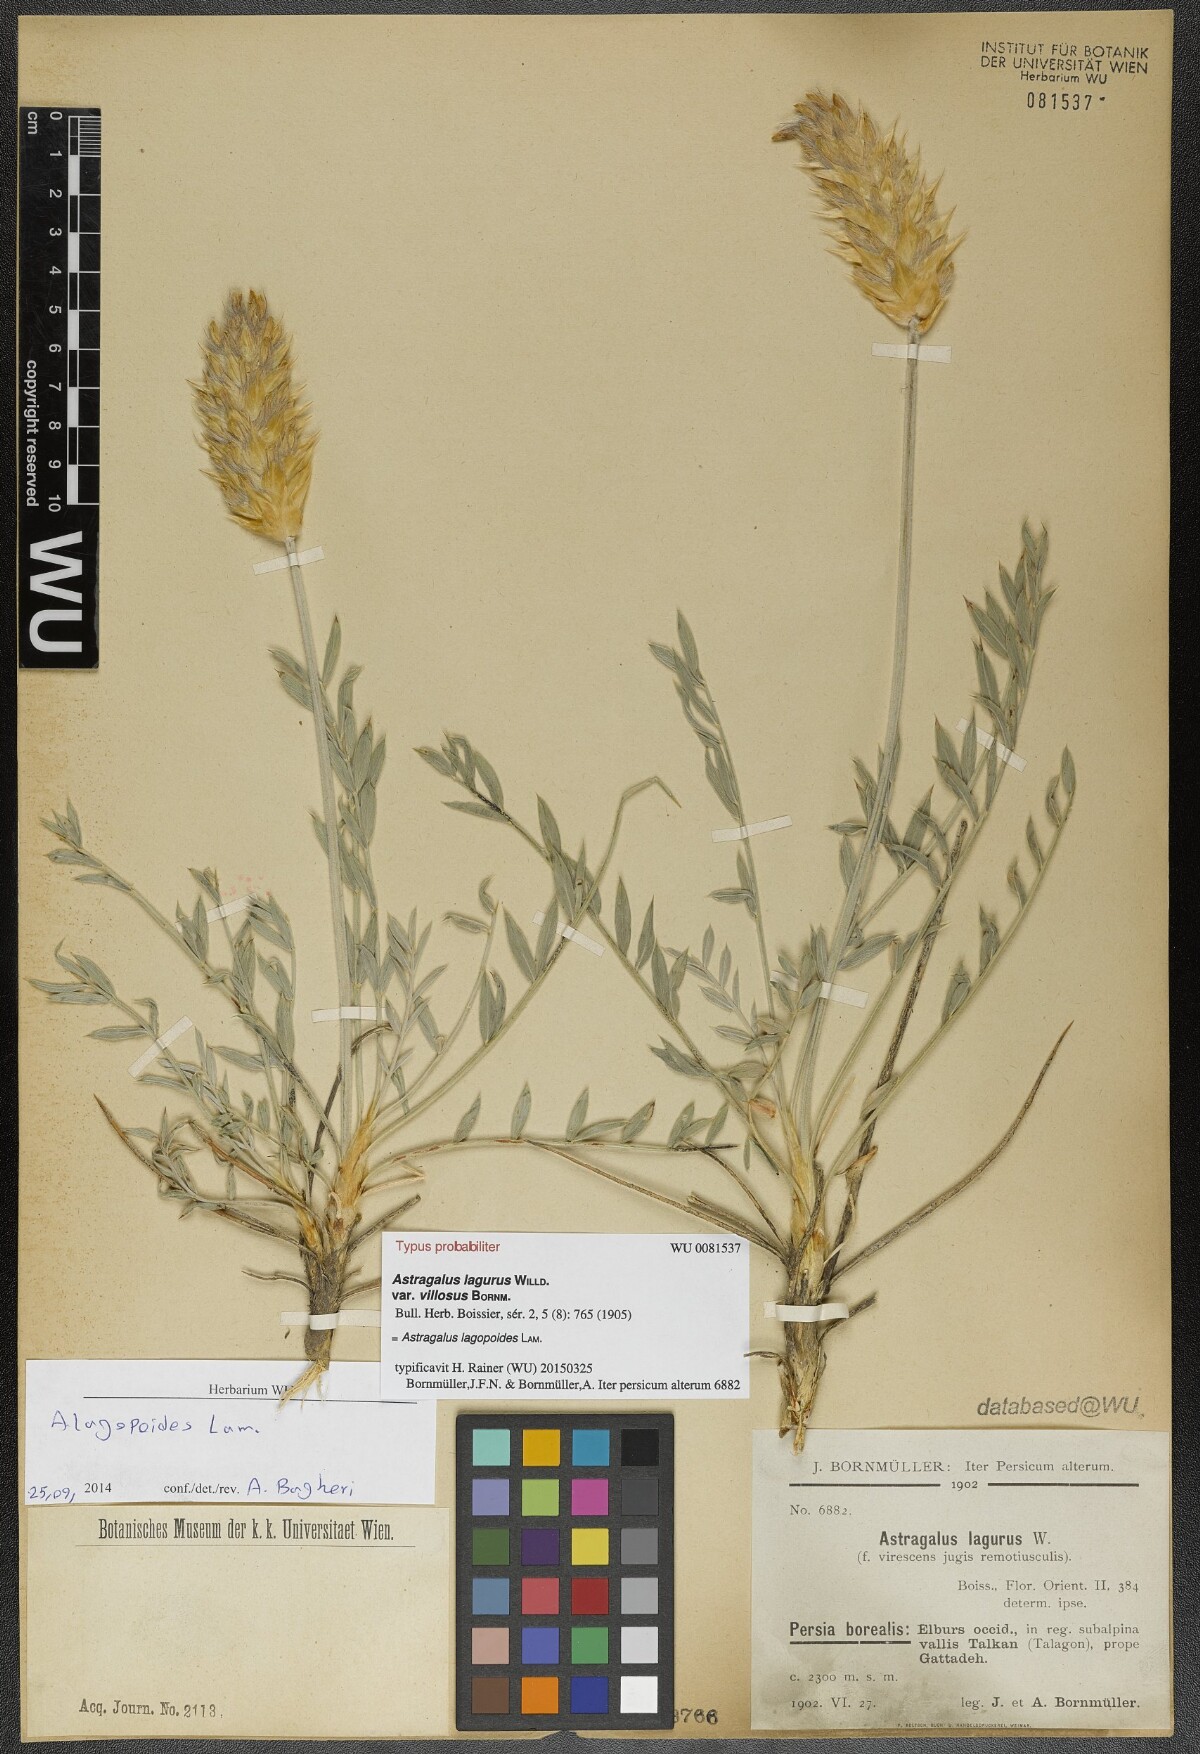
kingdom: Plantae
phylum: Tracheophyta
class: Magnoliopsida
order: Fabales
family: Fabaceae
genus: Astragalus
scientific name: Astragalus melanostictus
